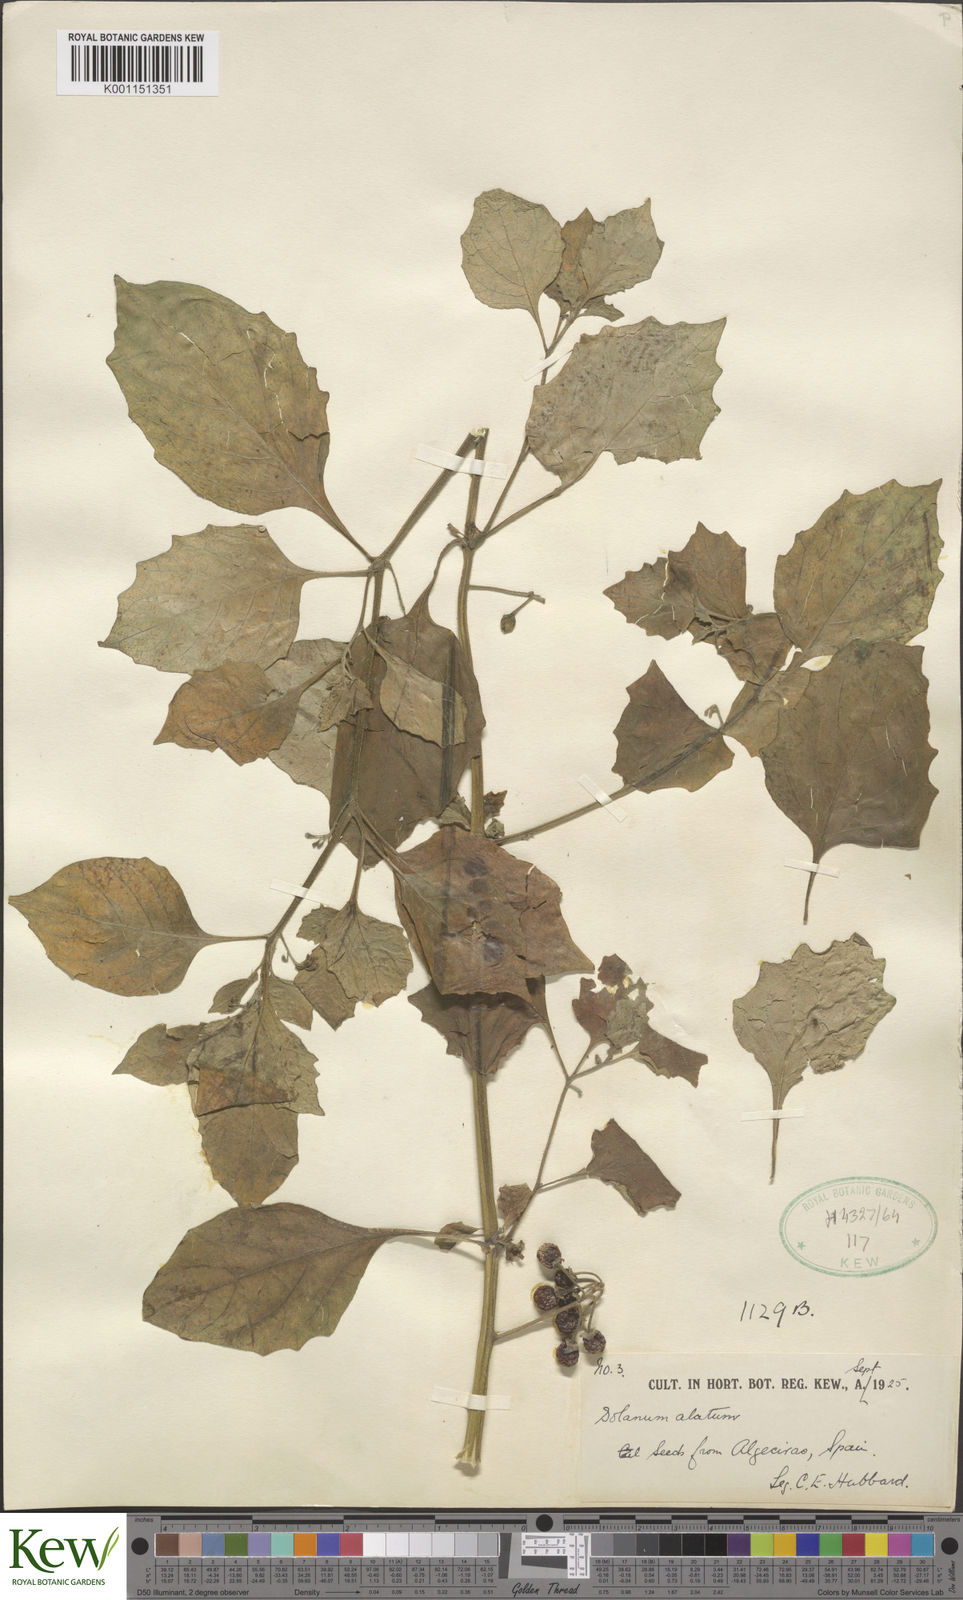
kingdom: Plantae
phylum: Tracheophyta
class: Magnoliopsida
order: Solanales
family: Solanaceae
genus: Solanum
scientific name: Solanum alatum
